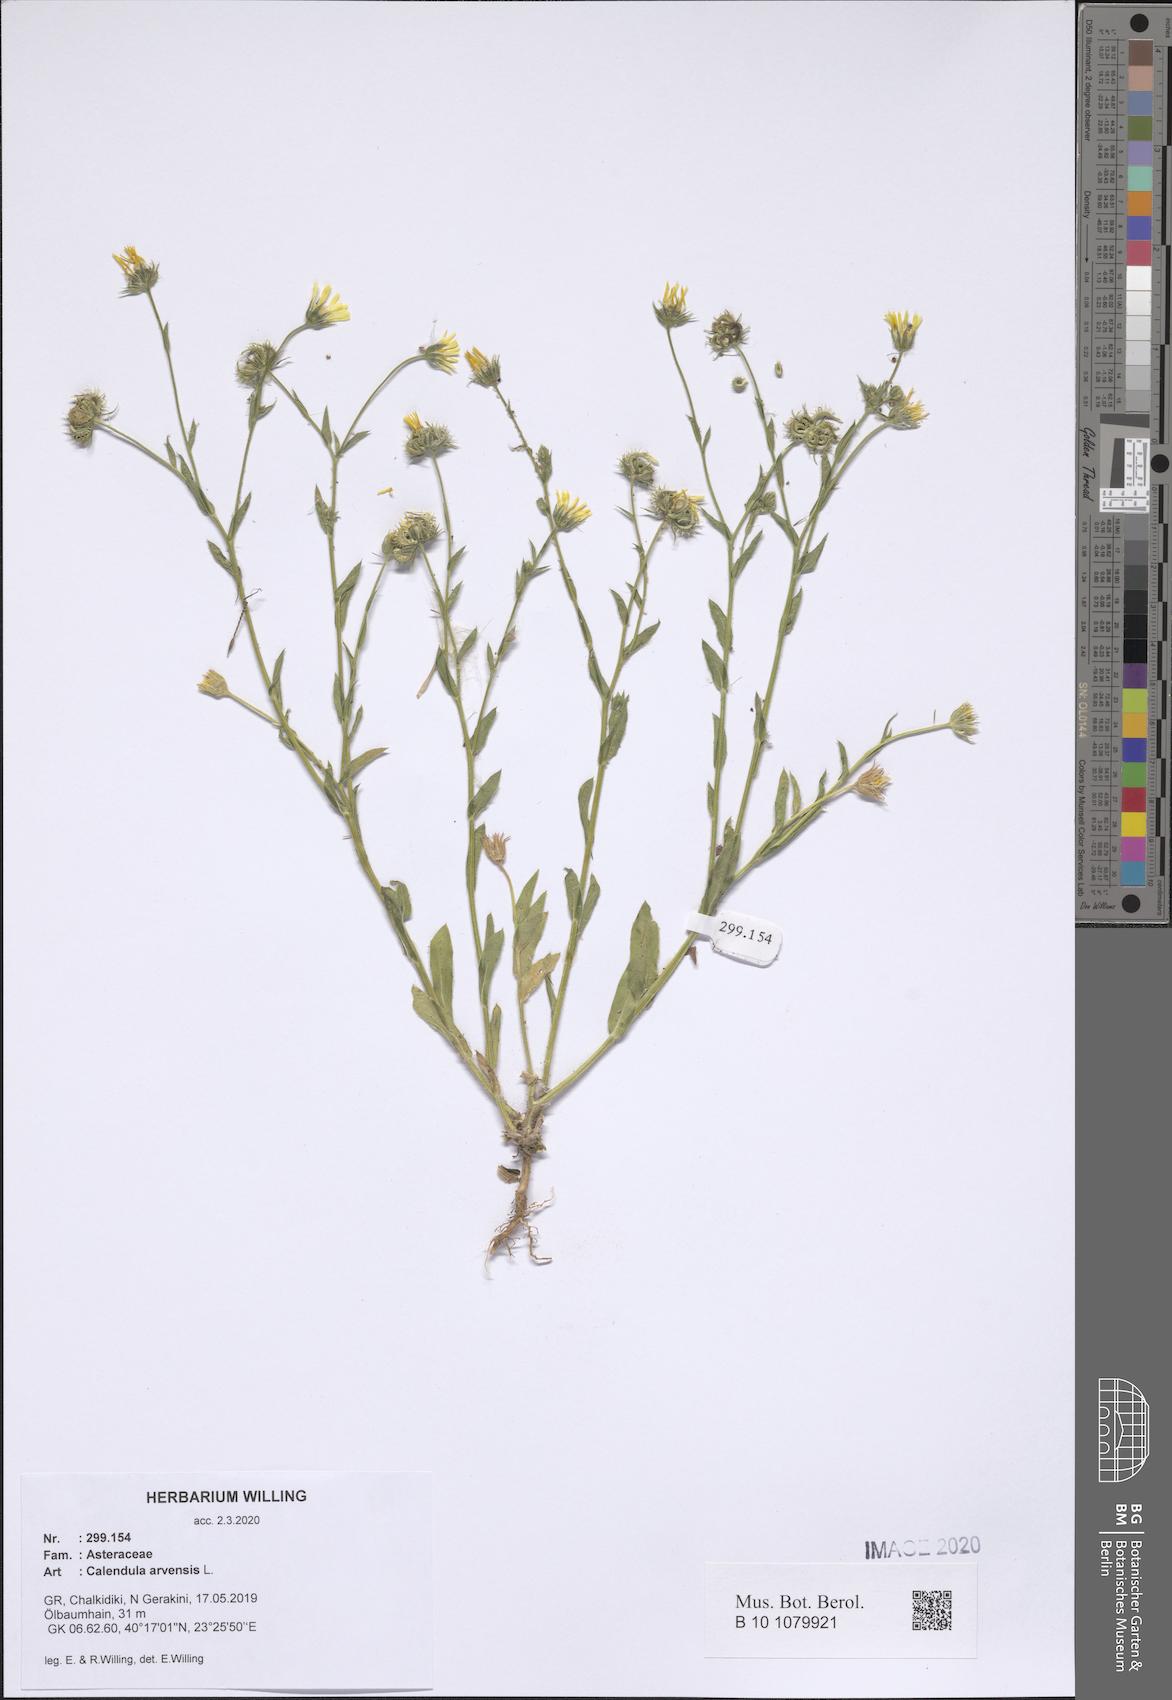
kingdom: Plantae
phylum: Tracheophyta
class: Magnoliopsida
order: Asterales
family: Asteraceae
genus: Calendula
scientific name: Calendula arvensis
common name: Field marigold
